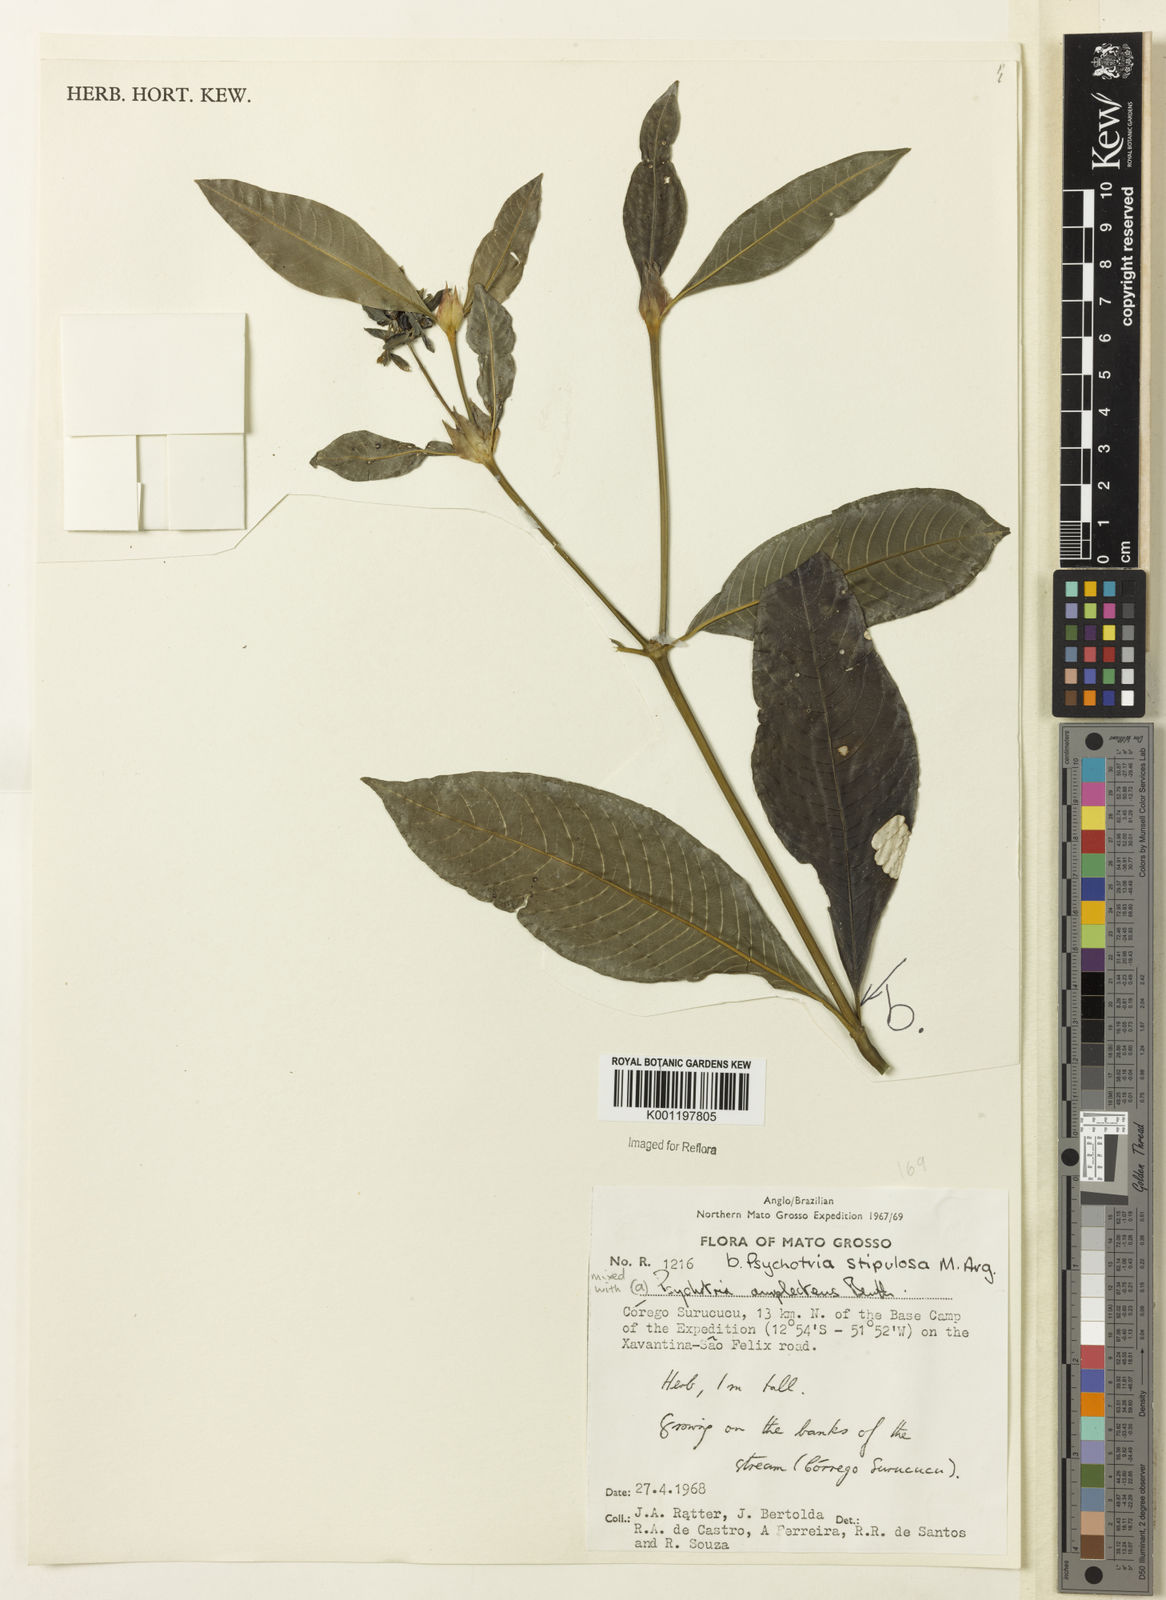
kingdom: Plantae
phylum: Tracheophyta
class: Magnoliopsida
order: Gentianales
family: Rubiaceae
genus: Psychotria
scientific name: Psychotria
